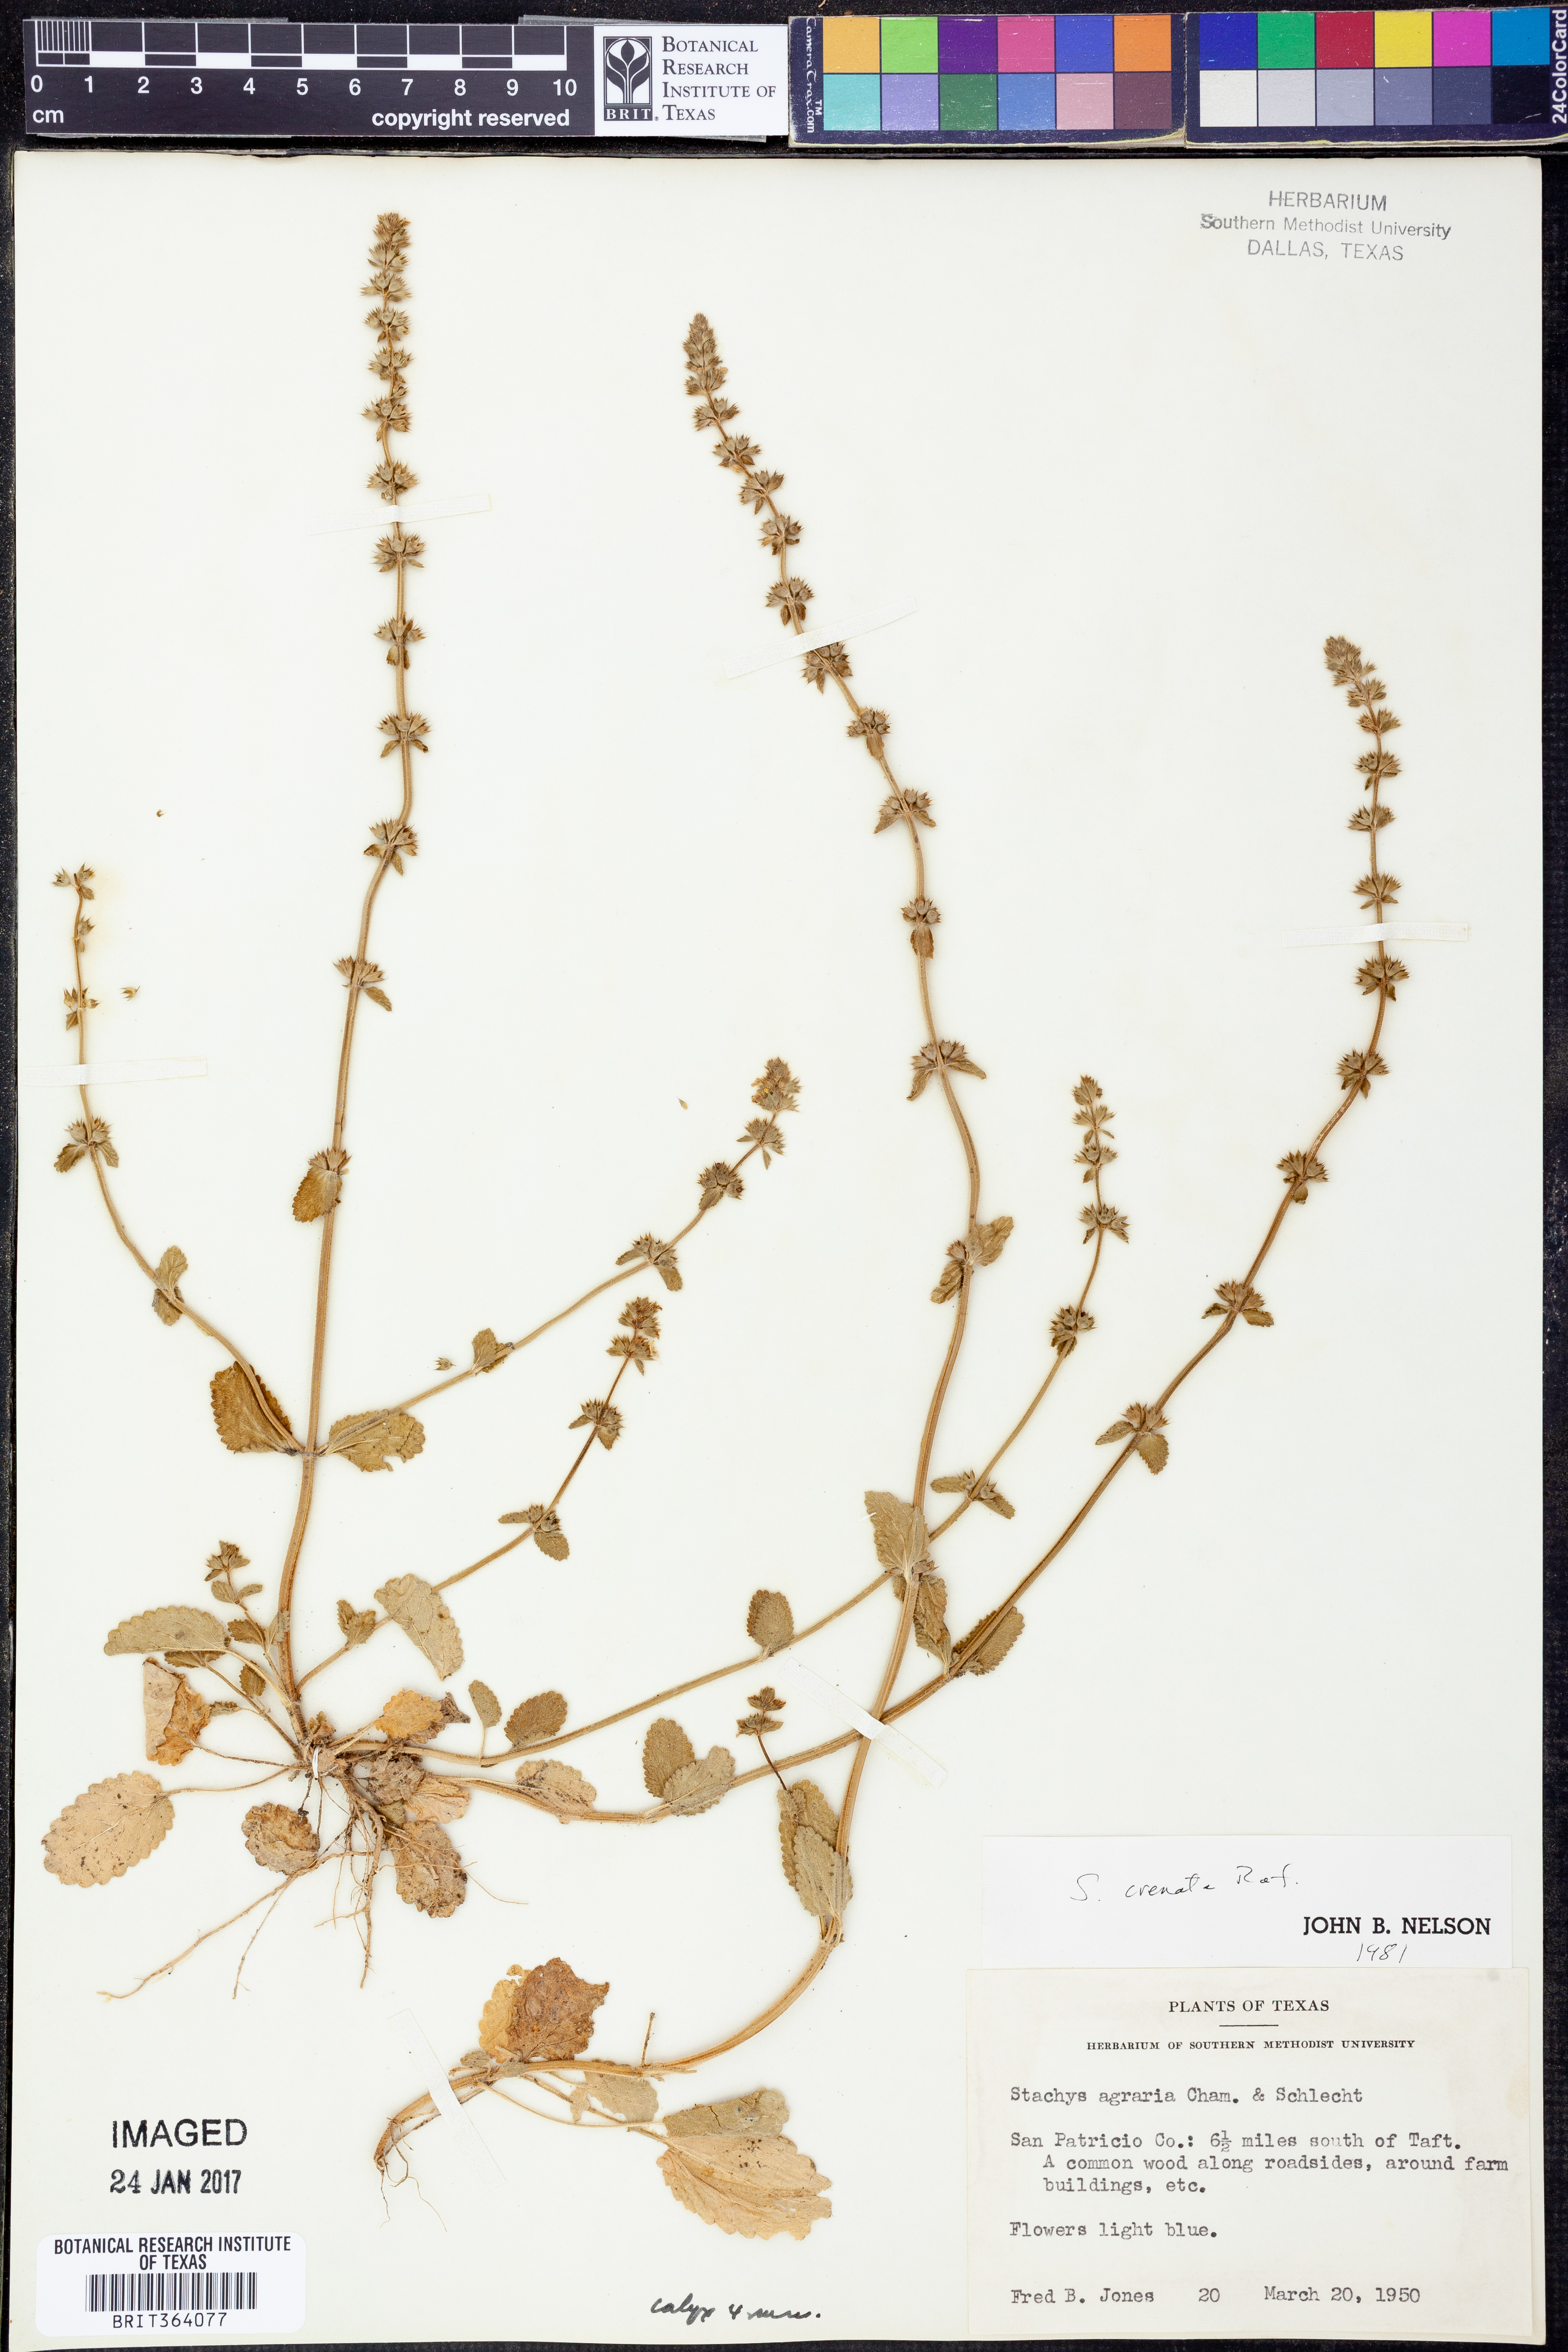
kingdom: Plantae
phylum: Tracheophyta
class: Magnoliopsida
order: Lamiales
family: Lamiaceae
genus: Stachys
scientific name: Stachys agraria
